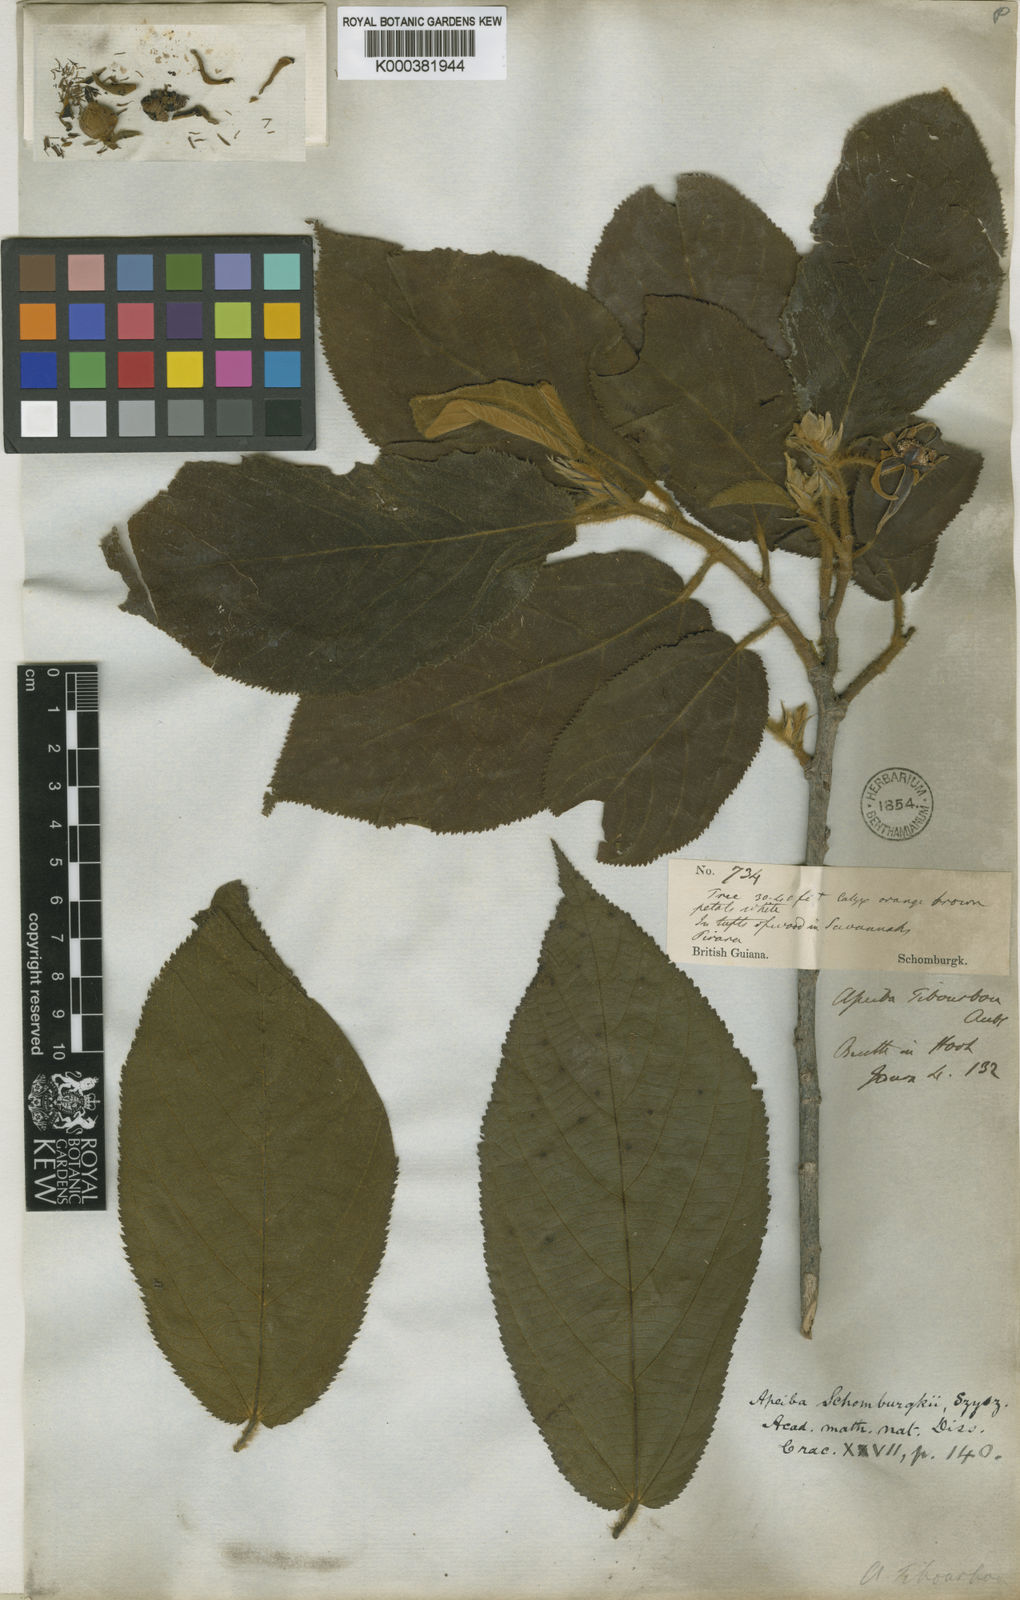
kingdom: Plantae
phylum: Tracheophyta
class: Magnoliopsida
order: Malvales
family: Malvaceae
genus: Apeiba
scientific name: Apeiba schomburgkii
